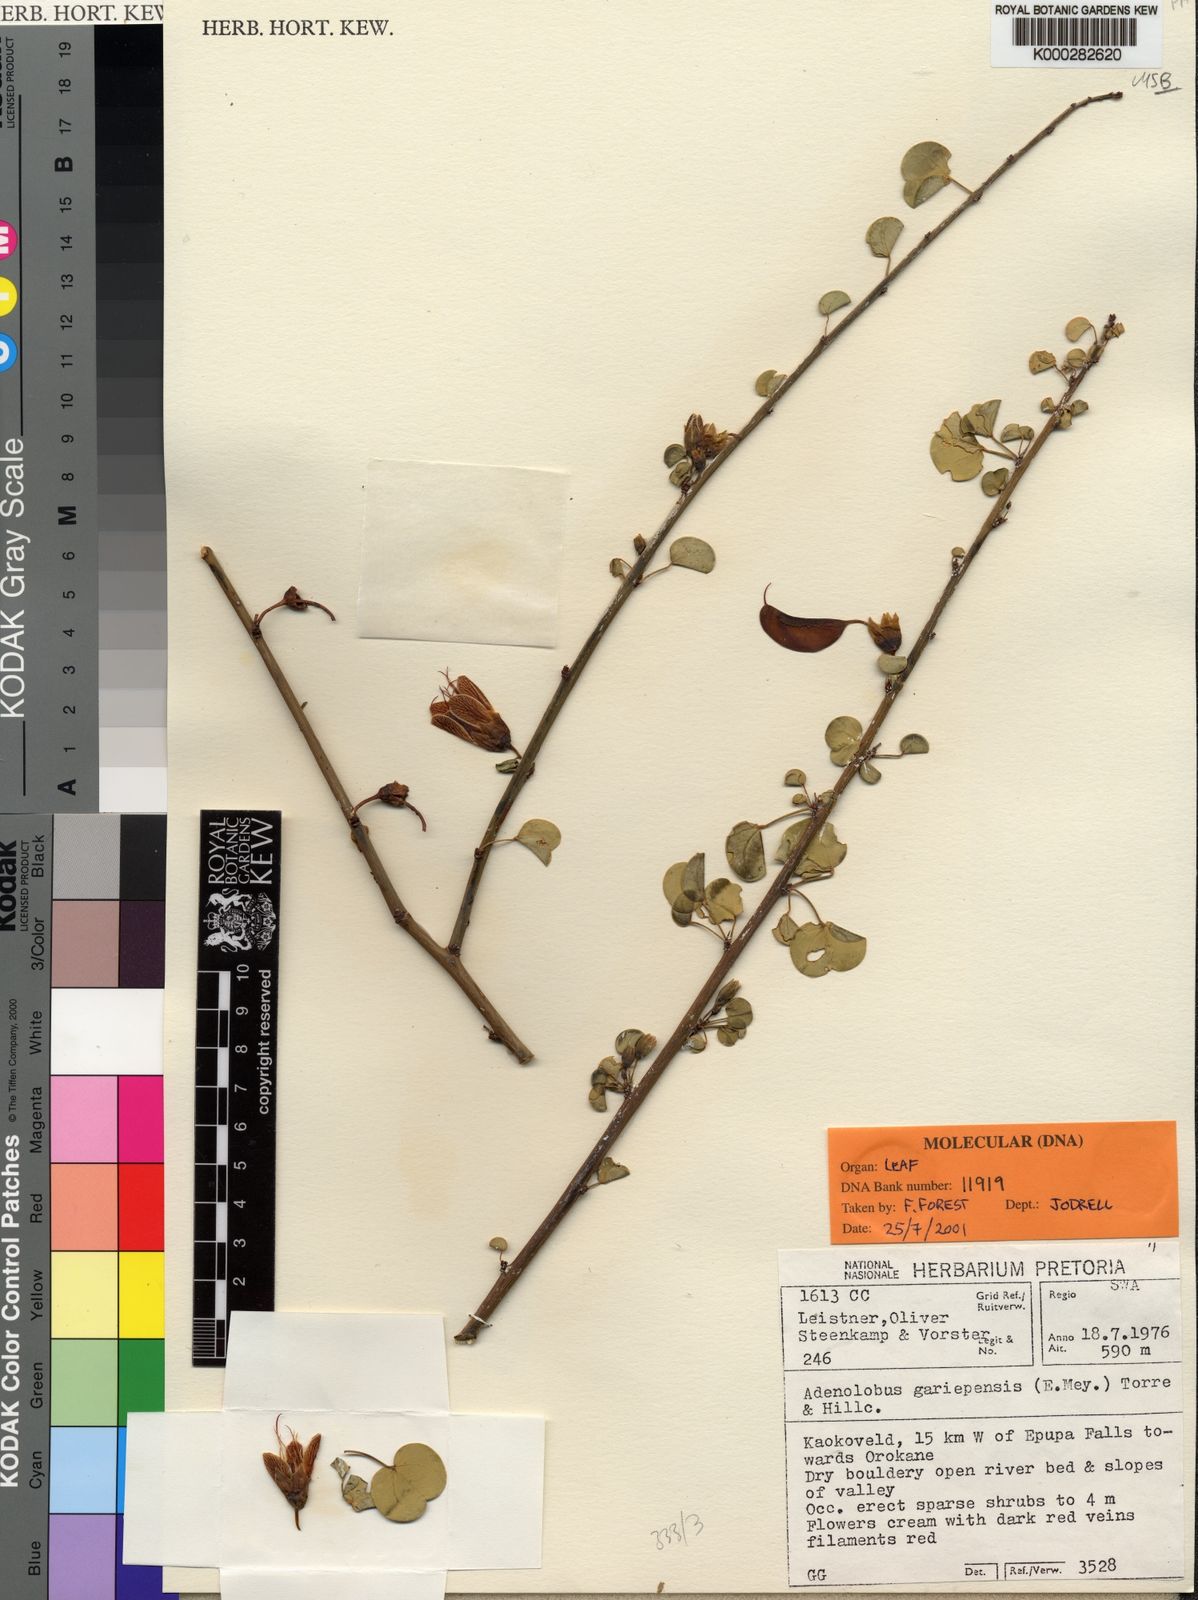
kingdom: Plantae
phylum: Tracheophyta
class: Magnoliopsida
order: Fabales
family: Fabaceae
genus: Adenolobus
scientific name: Adenolobus garipensis
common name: Butterfly-leaf
